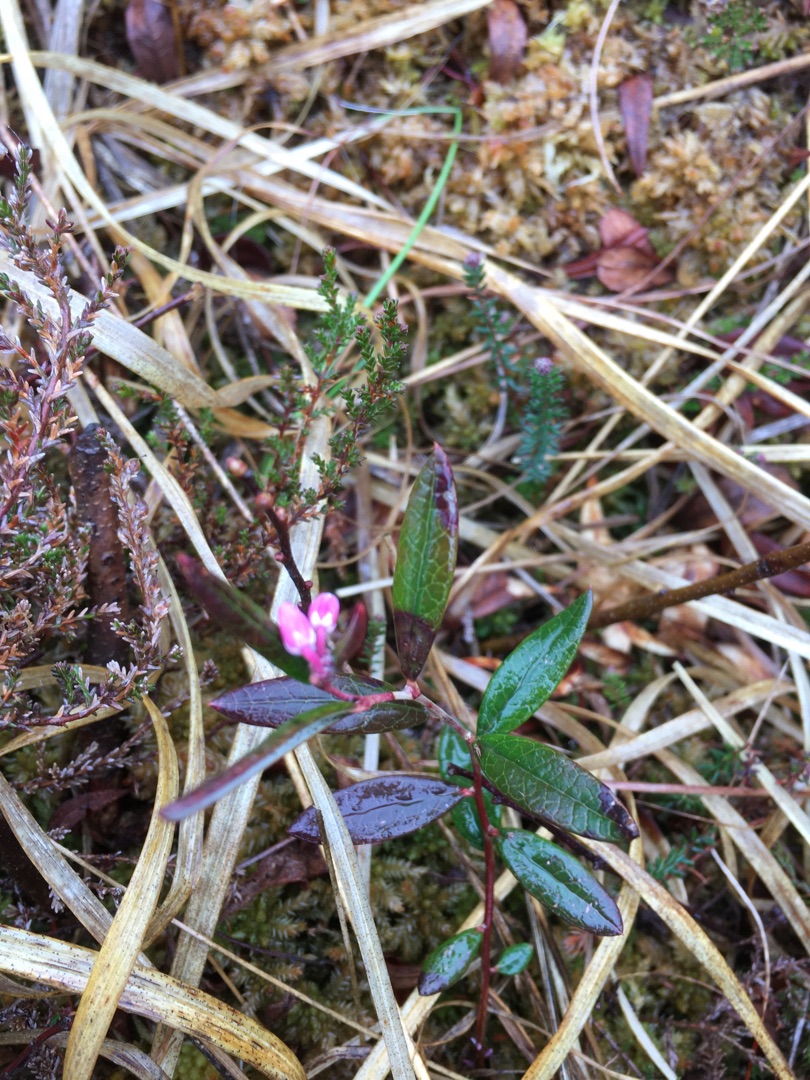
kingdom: Plantae
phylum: Tracheophyta
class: Magnoliopsida
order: Ericales
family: Ericaceae
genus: Andromeda
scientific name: Andromeda polifolia
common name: Rosmarinlyng
